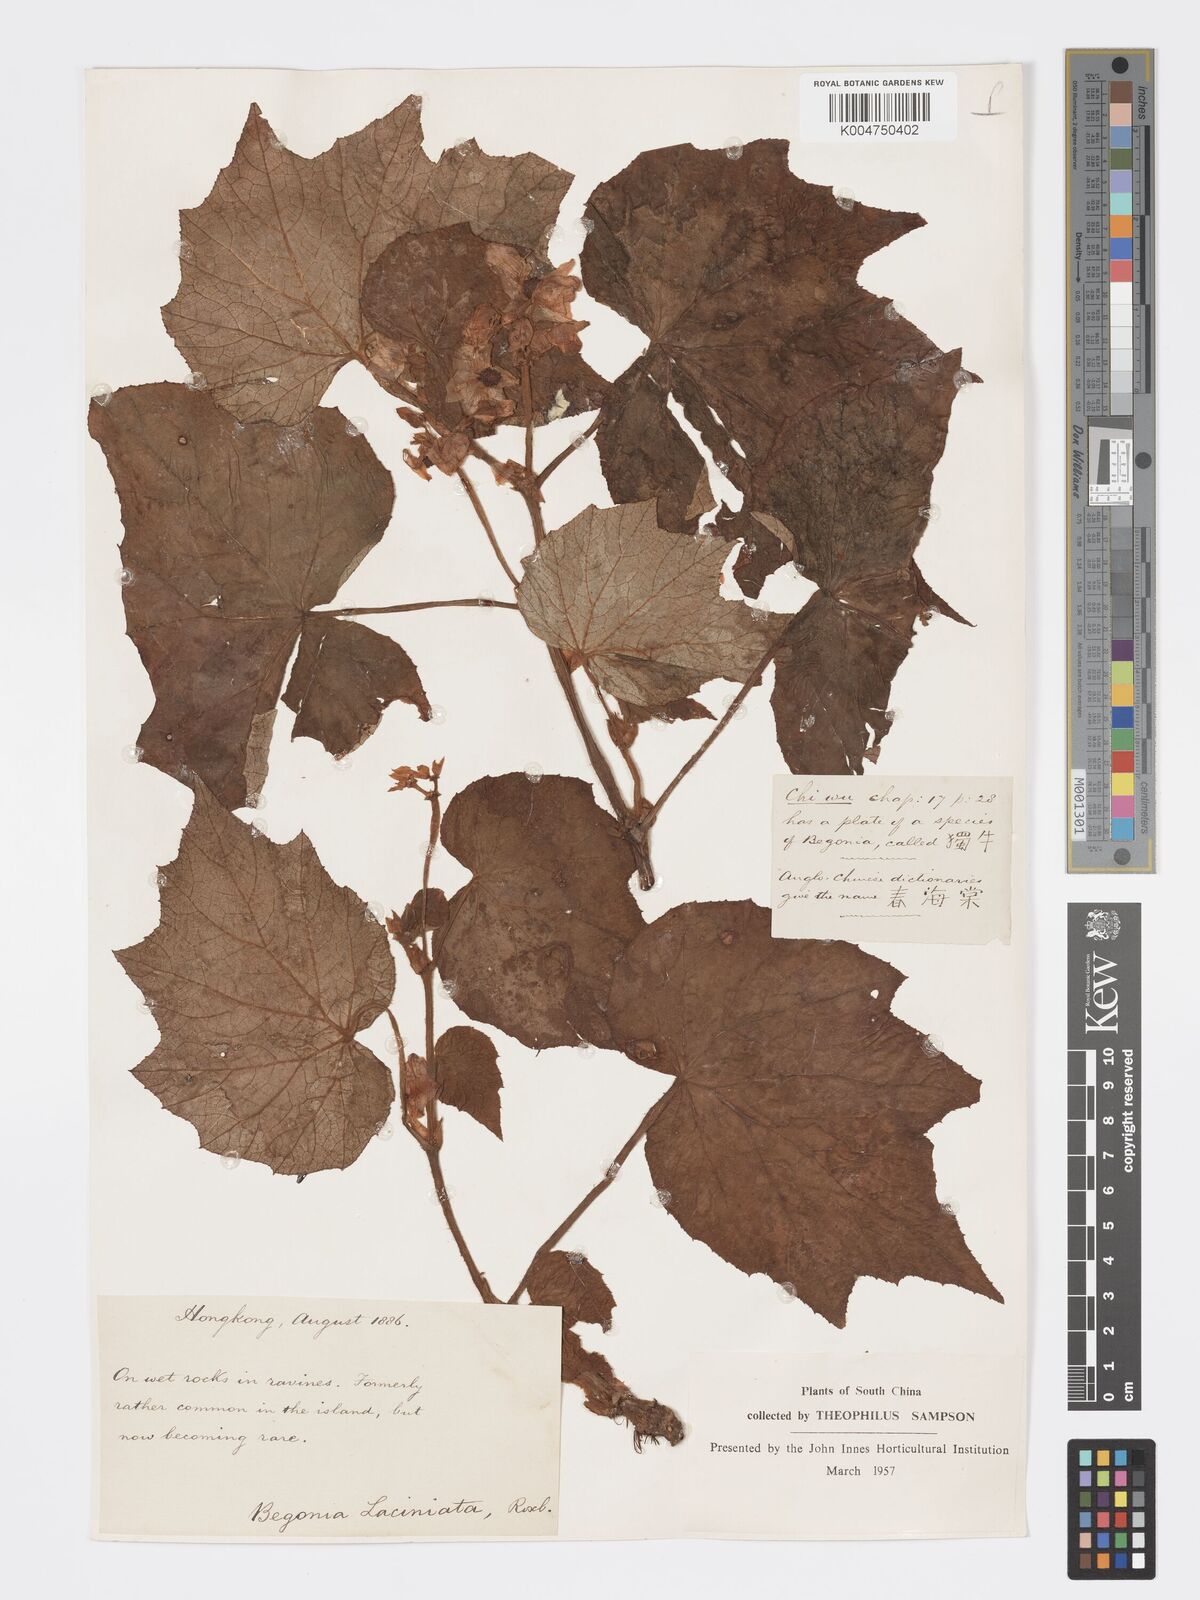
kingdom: Plantae
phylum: Tracheophyta
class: Magnoliopsida
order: Cucurbitales
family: Begoniaceae
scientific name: Begoniaceae
